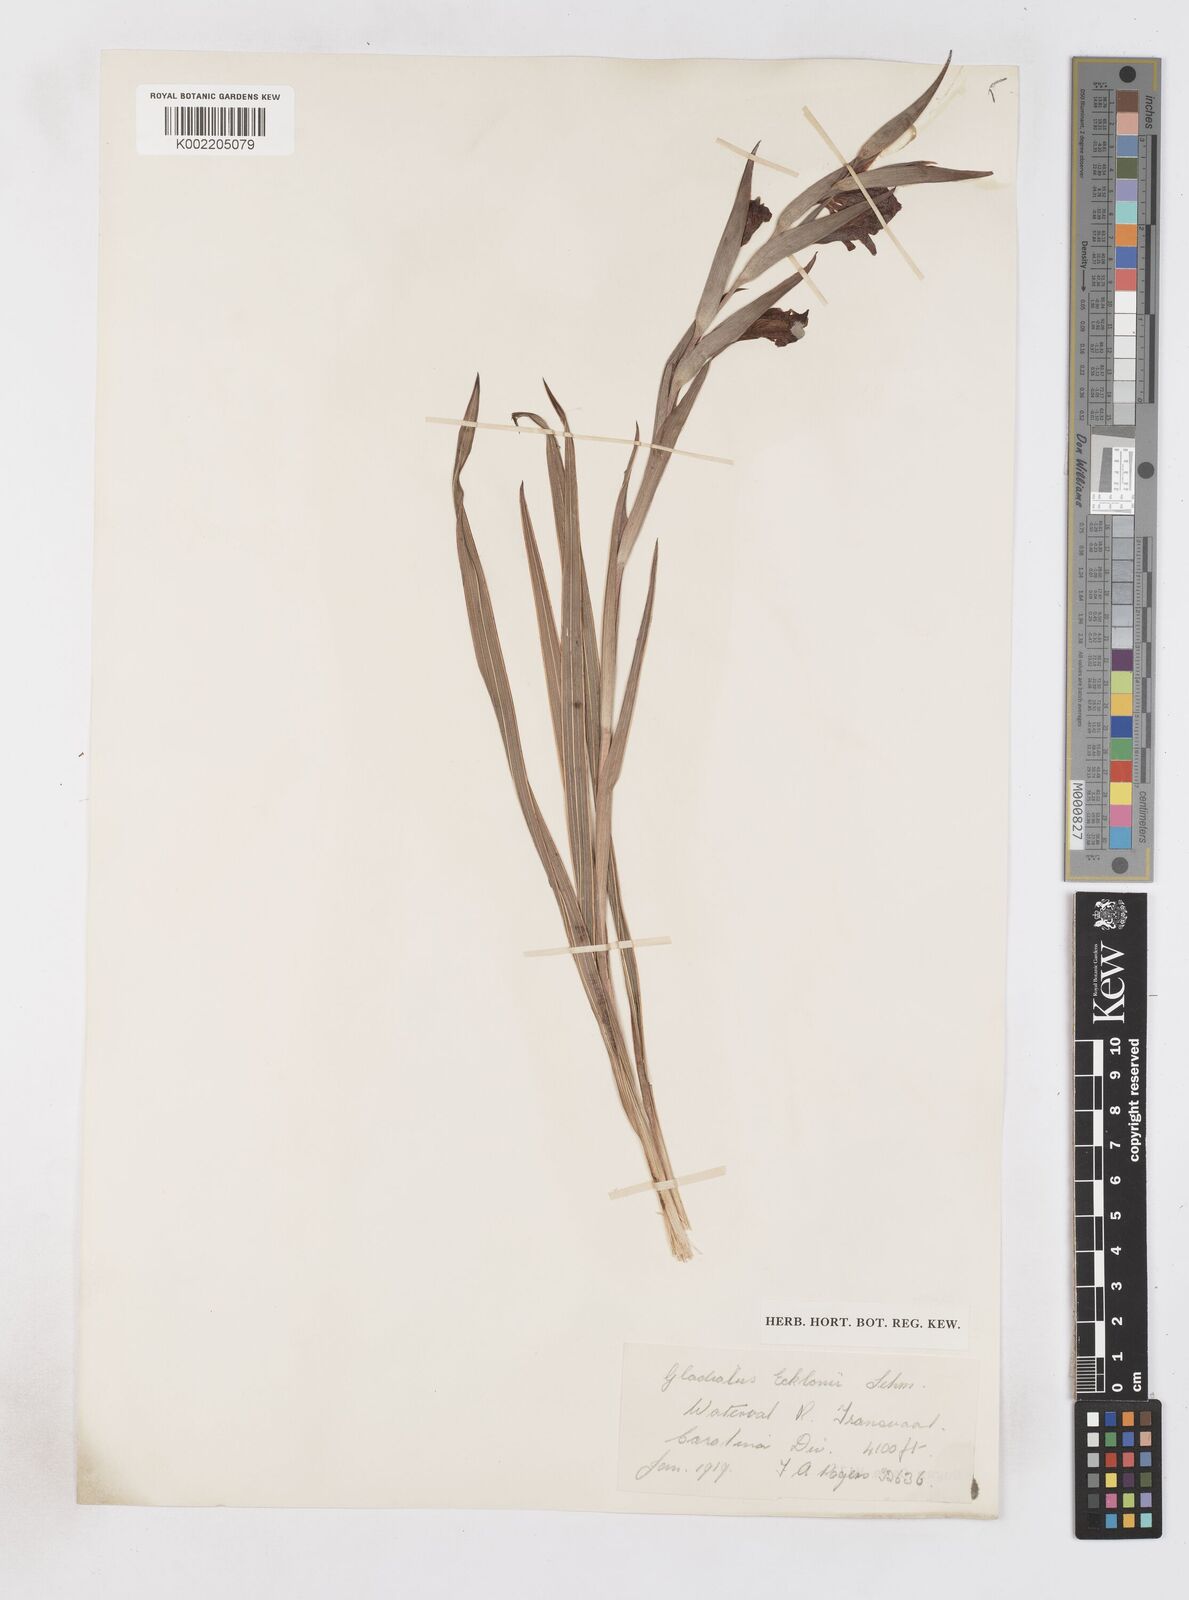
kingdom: Plantae
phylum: Tracheophyta
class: Liliopsida
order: Asparagales
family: Iridaceae
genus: Gladiolus
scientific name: Gladiolus ecklonii
